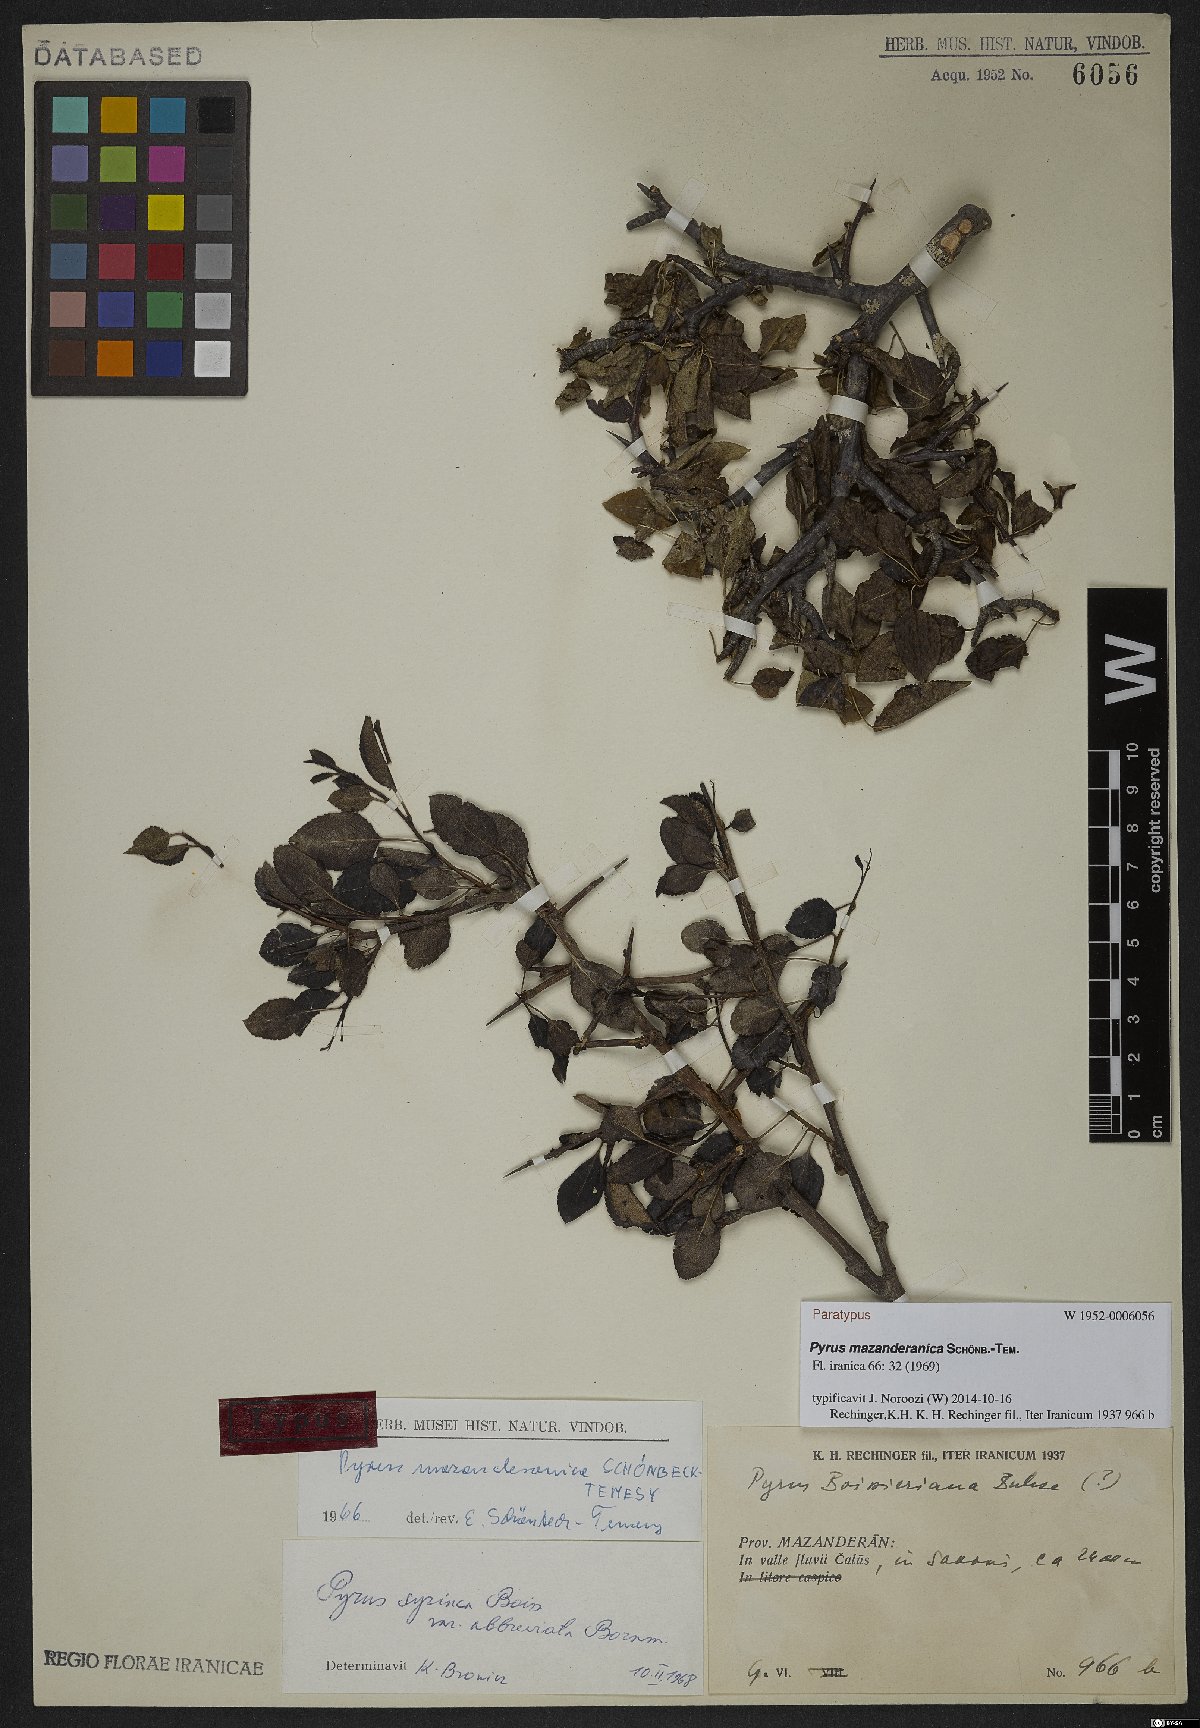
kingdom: Plantae
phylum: Tracheophyta
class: Magnoliopsida
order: Rosales
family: Rosaceae
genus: Pyrus
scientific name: Pyrus mazanderanica
